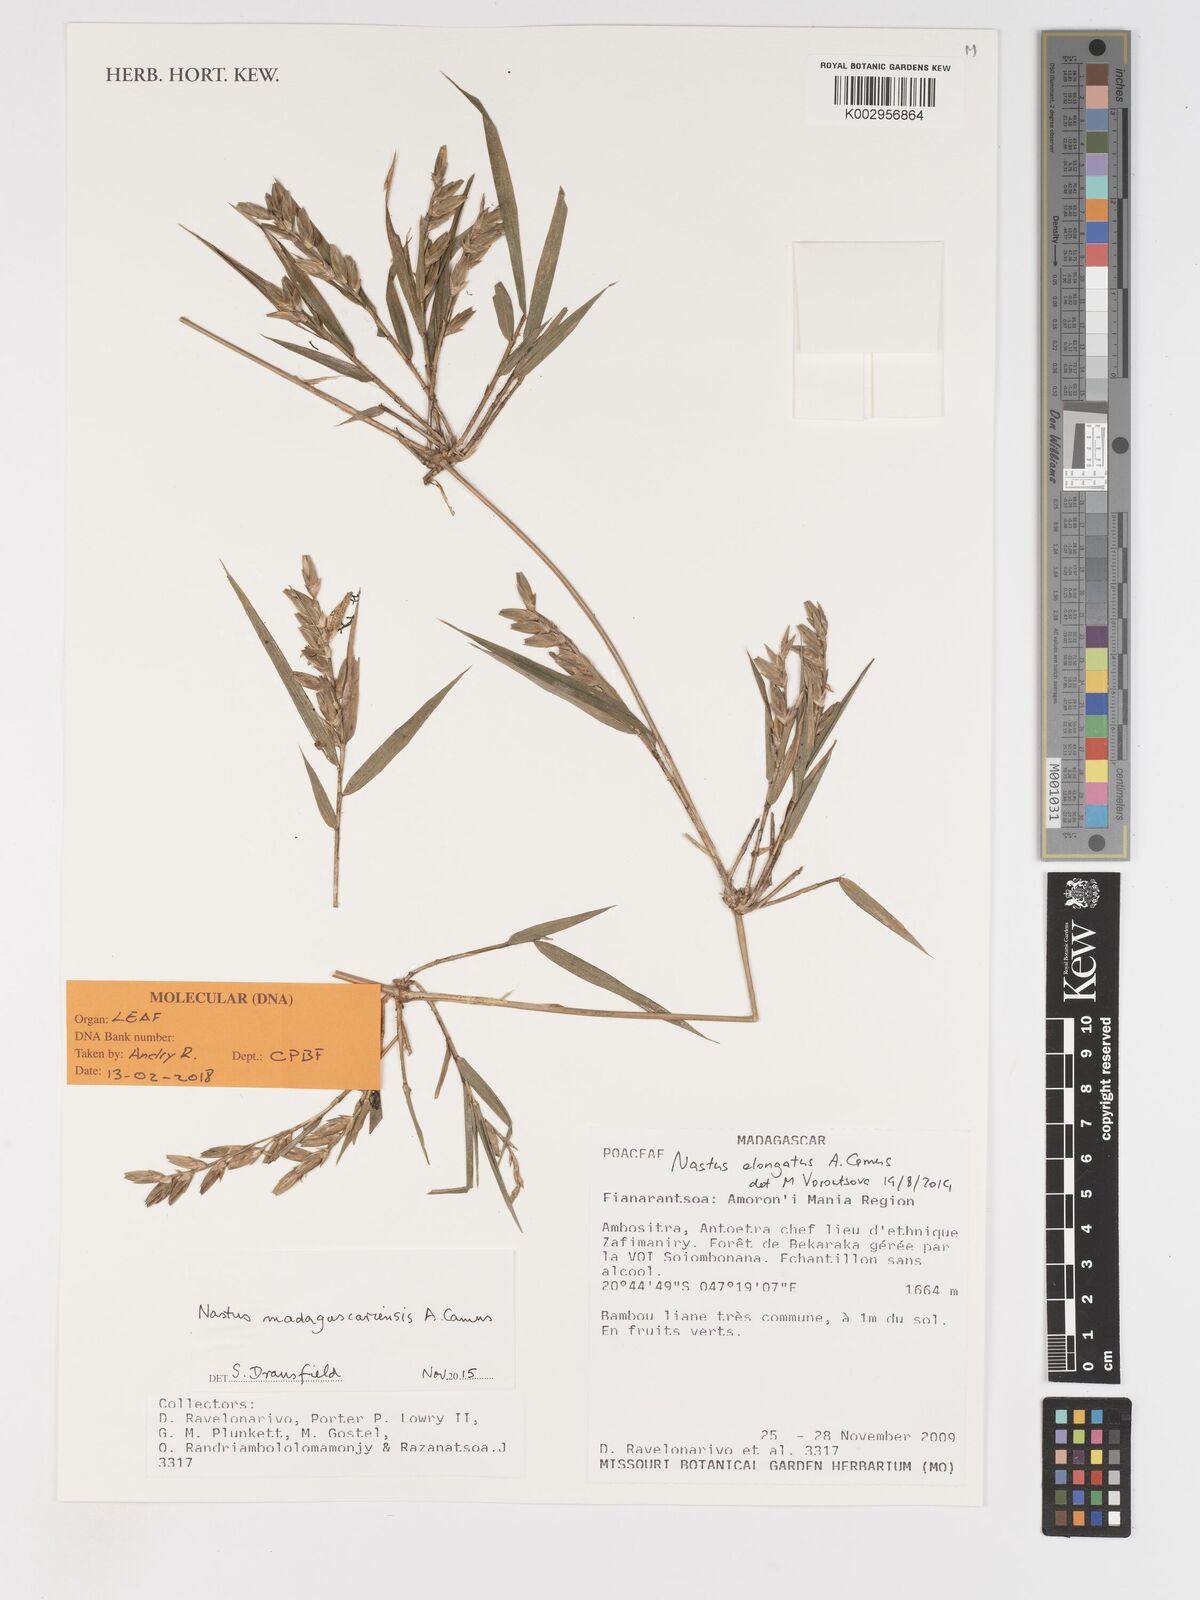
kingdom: Plantae
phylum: Tracheophyta
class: Liliopsida
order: Poales
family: Poaceae
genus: Nastus
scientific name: Nastus madagascariensis
